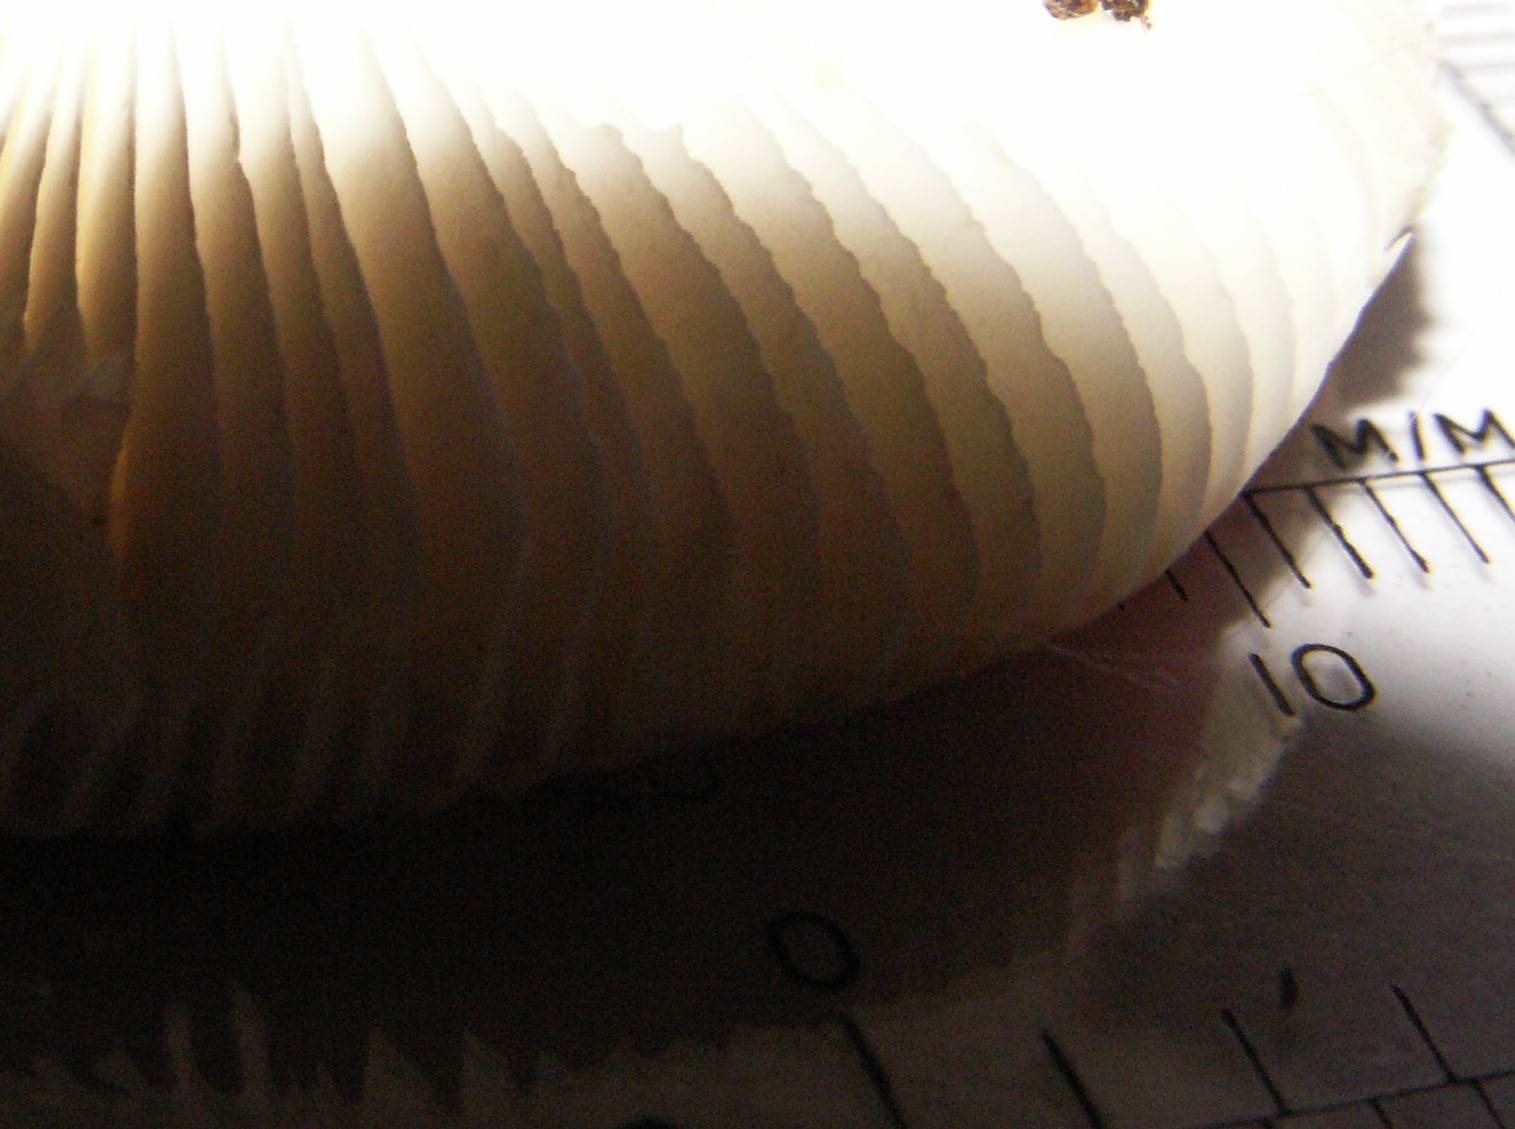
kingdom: Fungi
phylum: Basidiomycota
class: Agaricomycetes
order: Russulales
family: Russulaceae
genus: Russula
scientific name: Russula fragilis
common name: Fragile brittlegill
